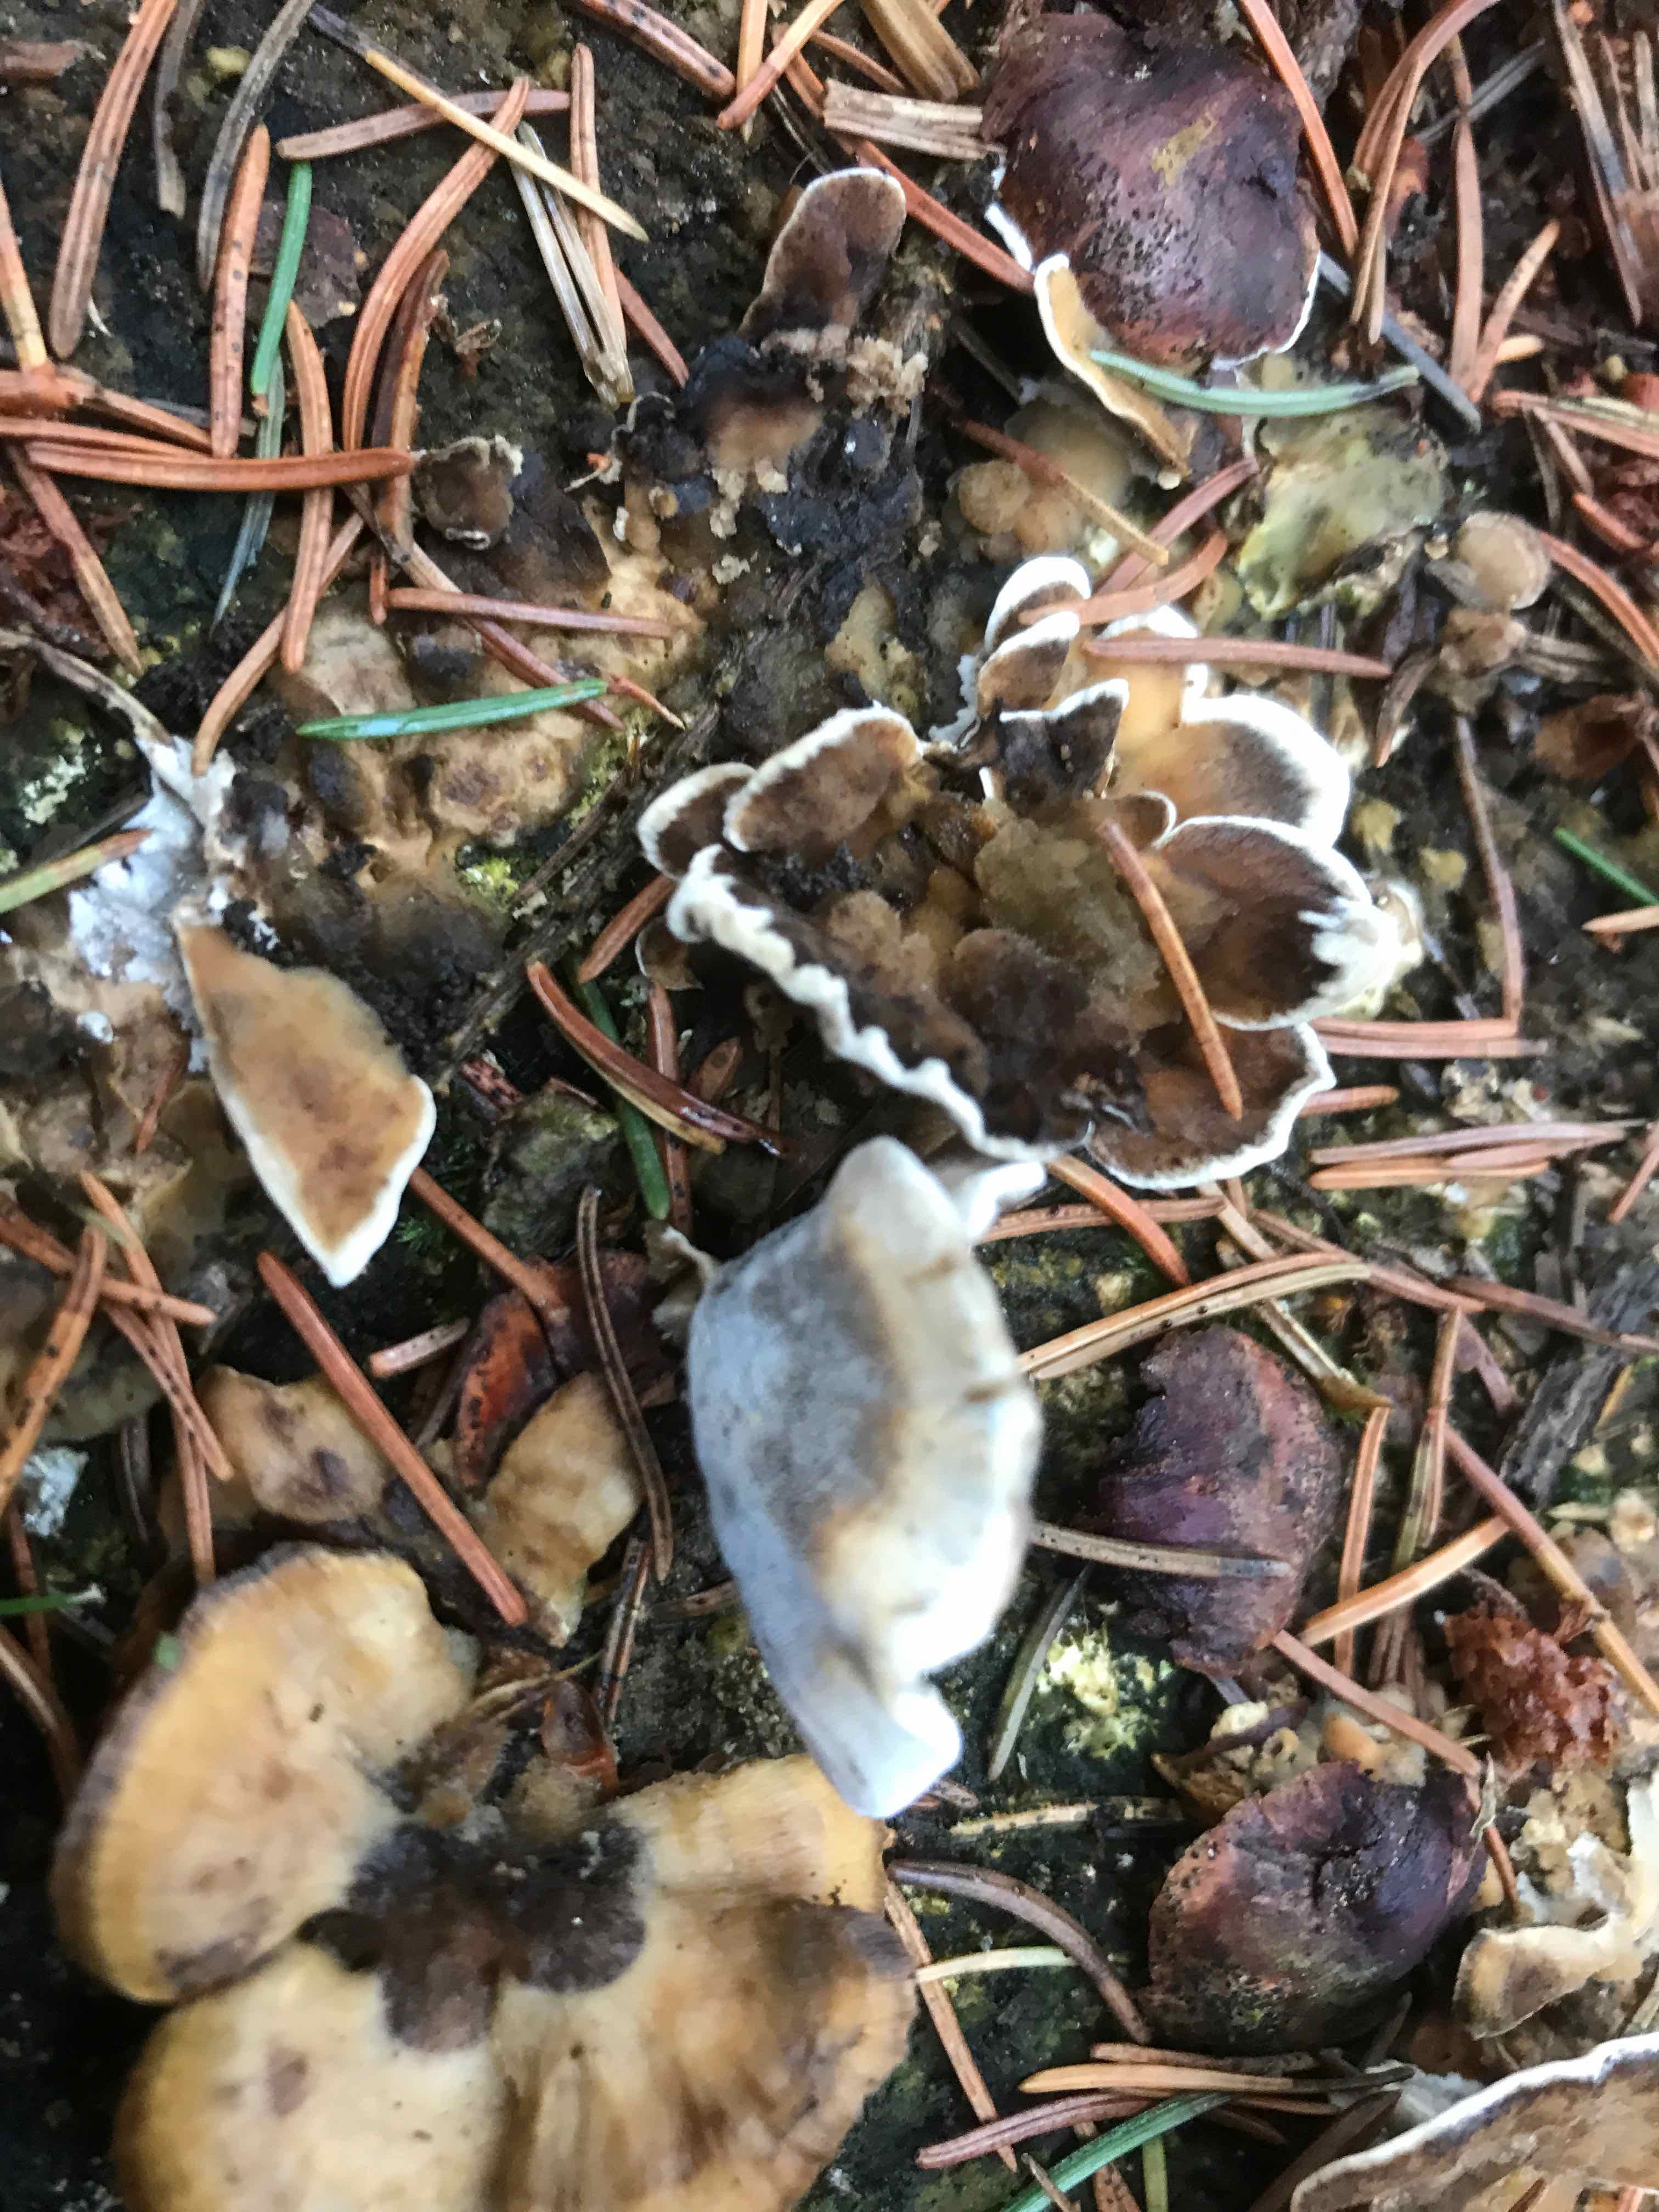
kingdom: Fungi
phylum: Basidiomycota
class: Agaricomycetes
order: Polyporales
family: Phanerochaetaceae
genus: Bjerkandera
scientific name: Bjerkandera adusta
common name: sveden sodporesvamp
